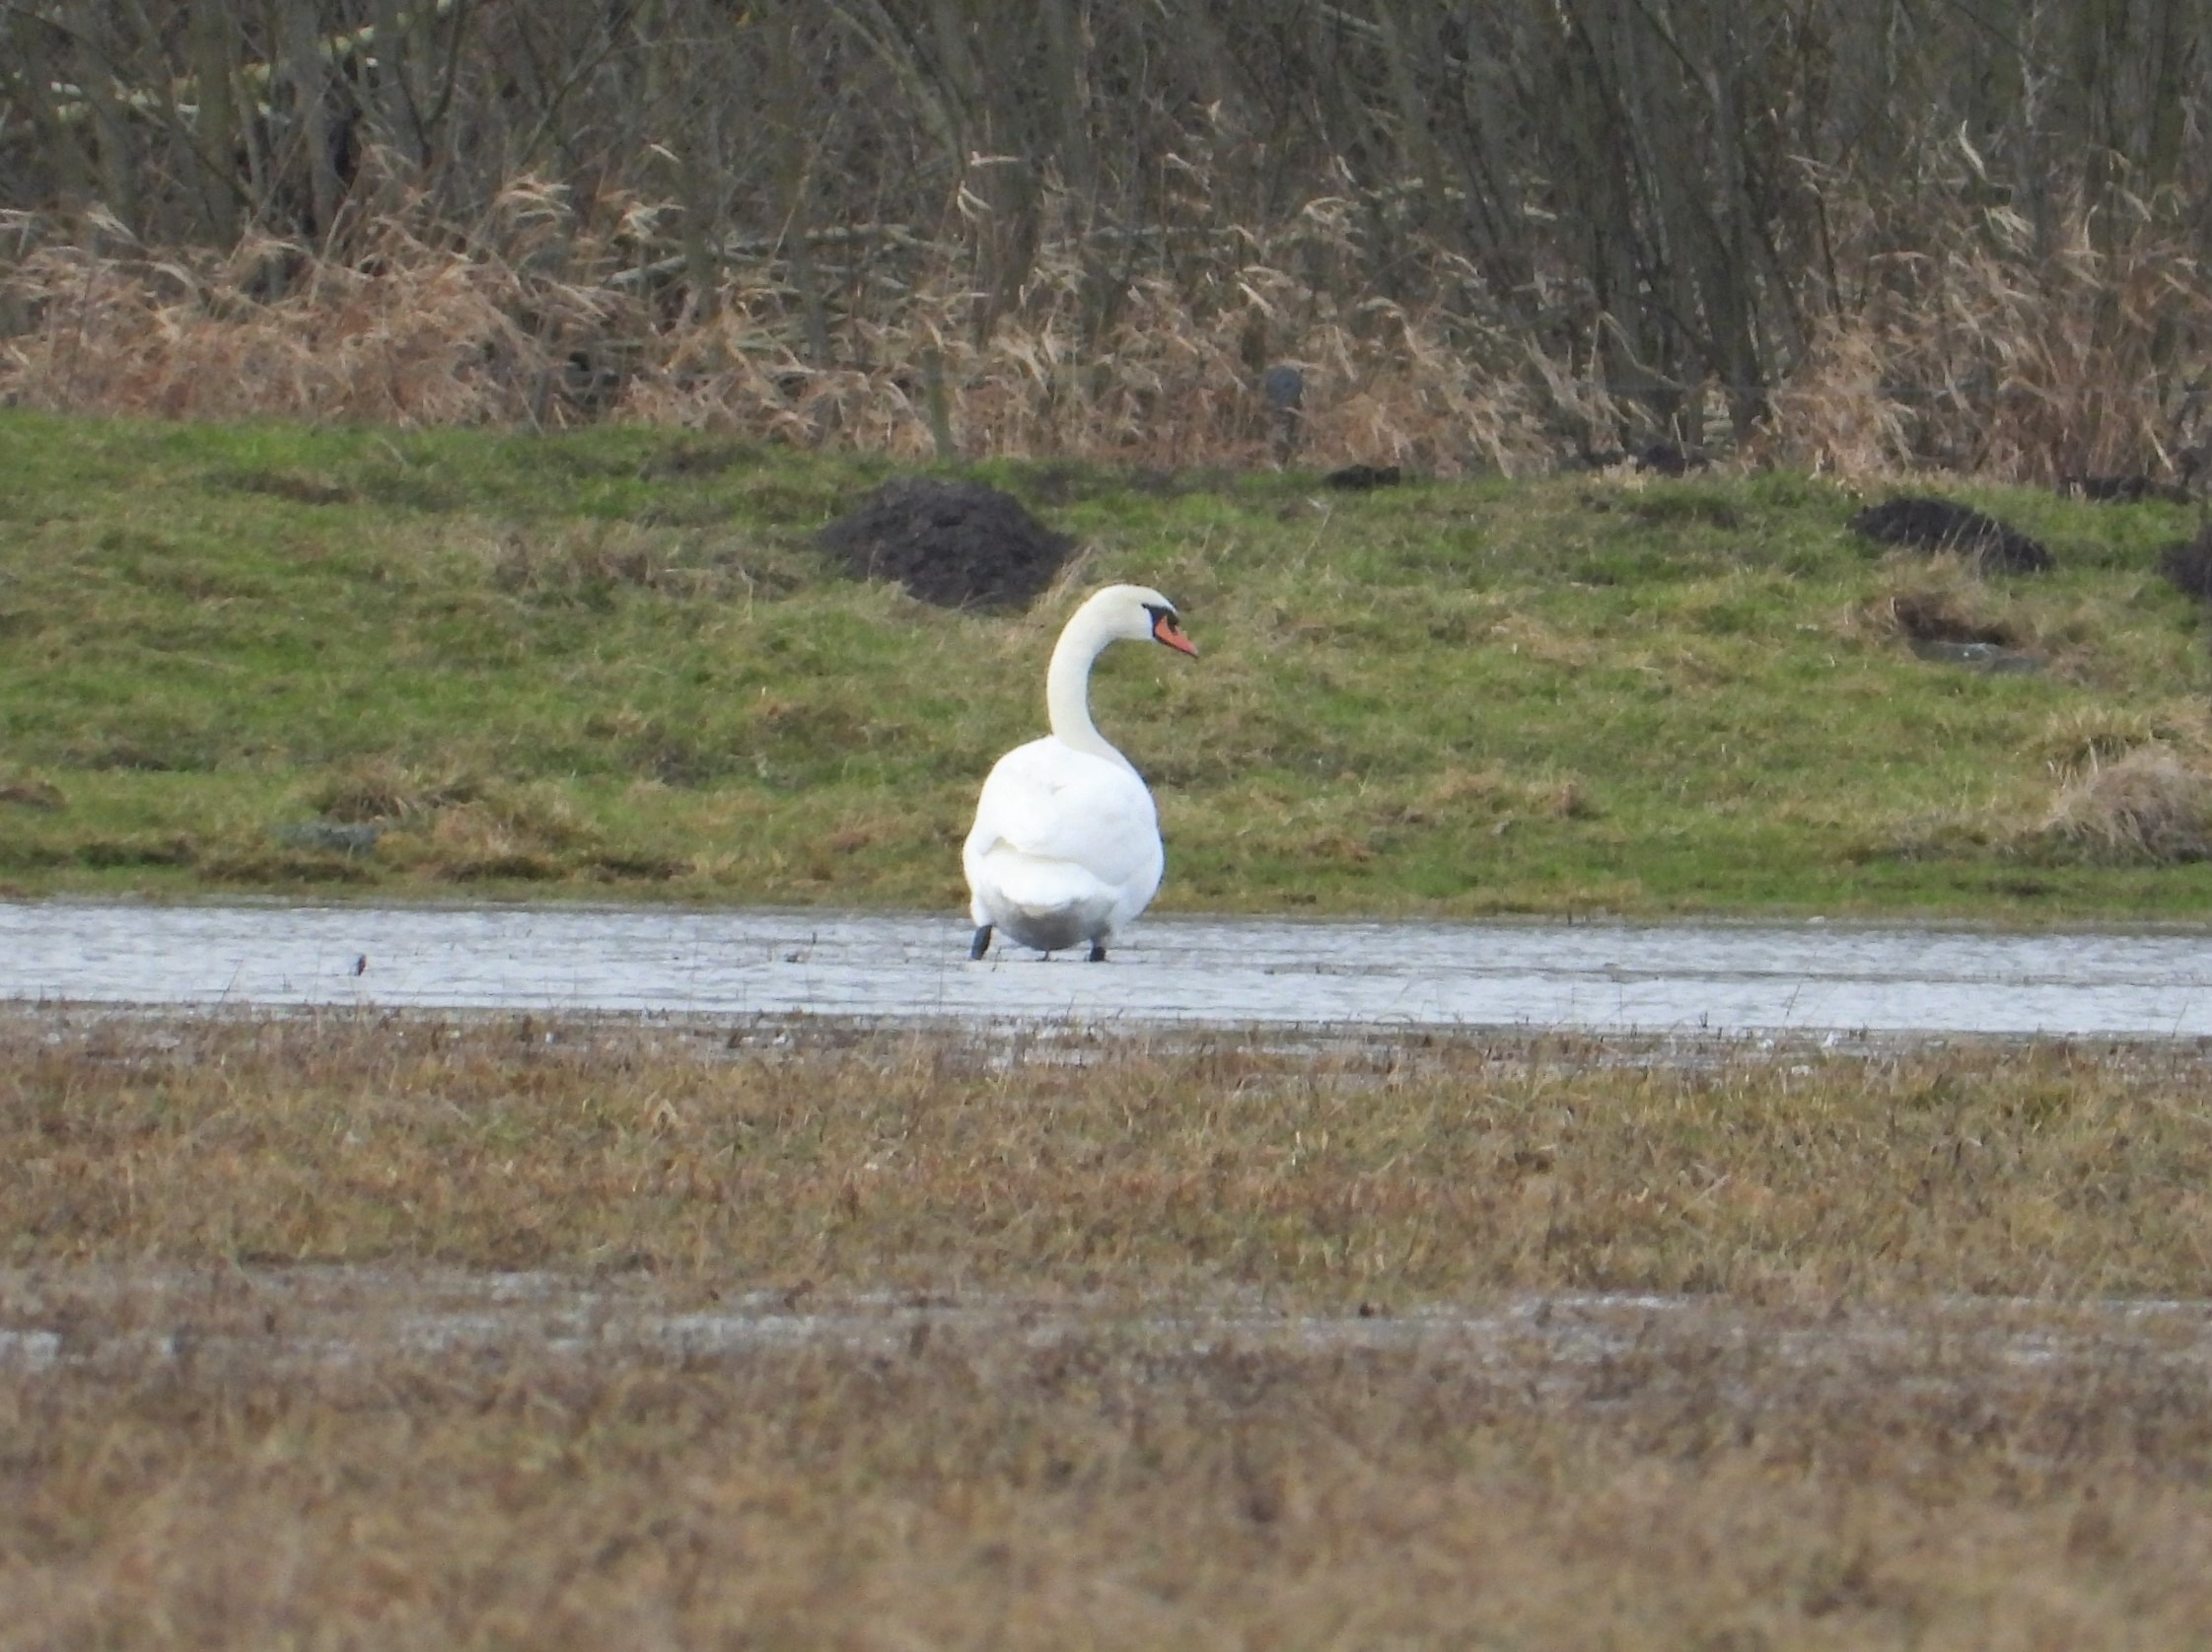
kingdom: Animalia
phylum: Chordata
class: Aves
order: Anseriformes
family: Anatidae
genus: Cygnus
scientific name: Cygnus olor
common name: Knopsvane
